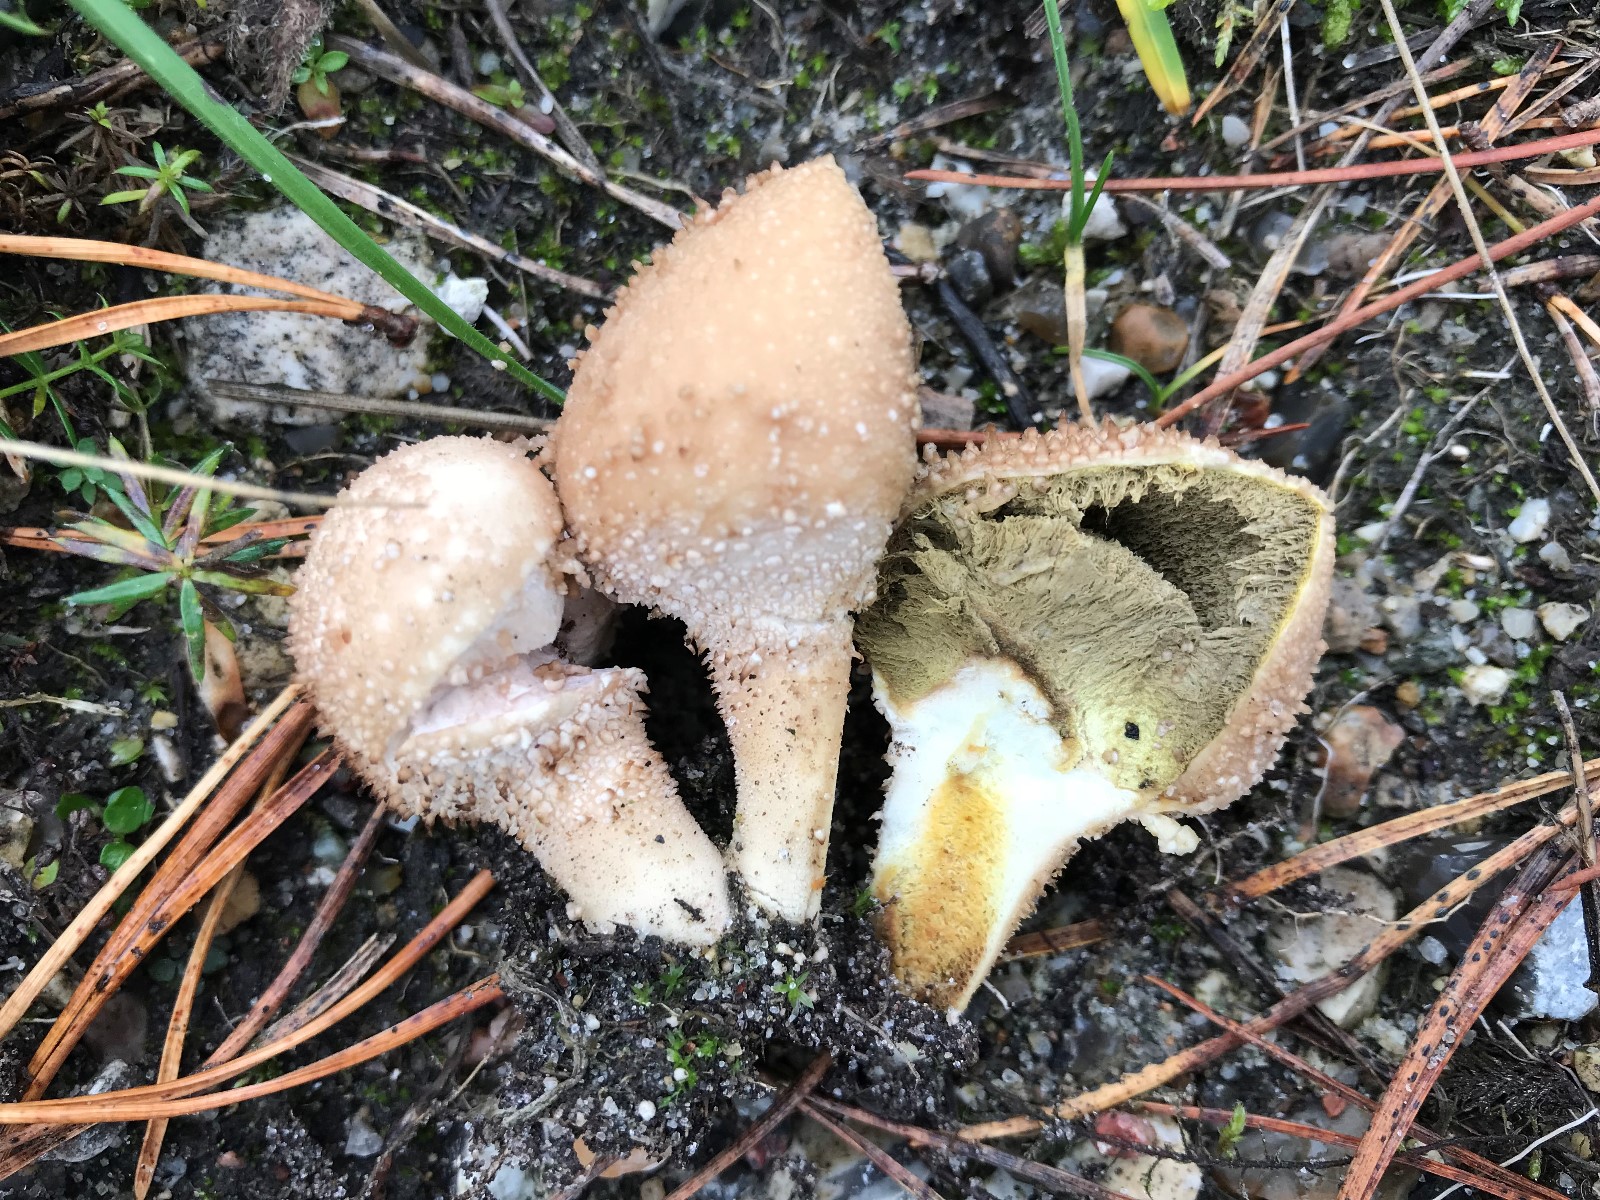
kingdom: Fungi
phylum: Basidiomycota
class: Agaricomycetes
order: Agaricales
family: Lycoperdaceae
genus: Lycoperdon
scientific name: Lycoperdon perlatum
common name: krystal-støvbold
